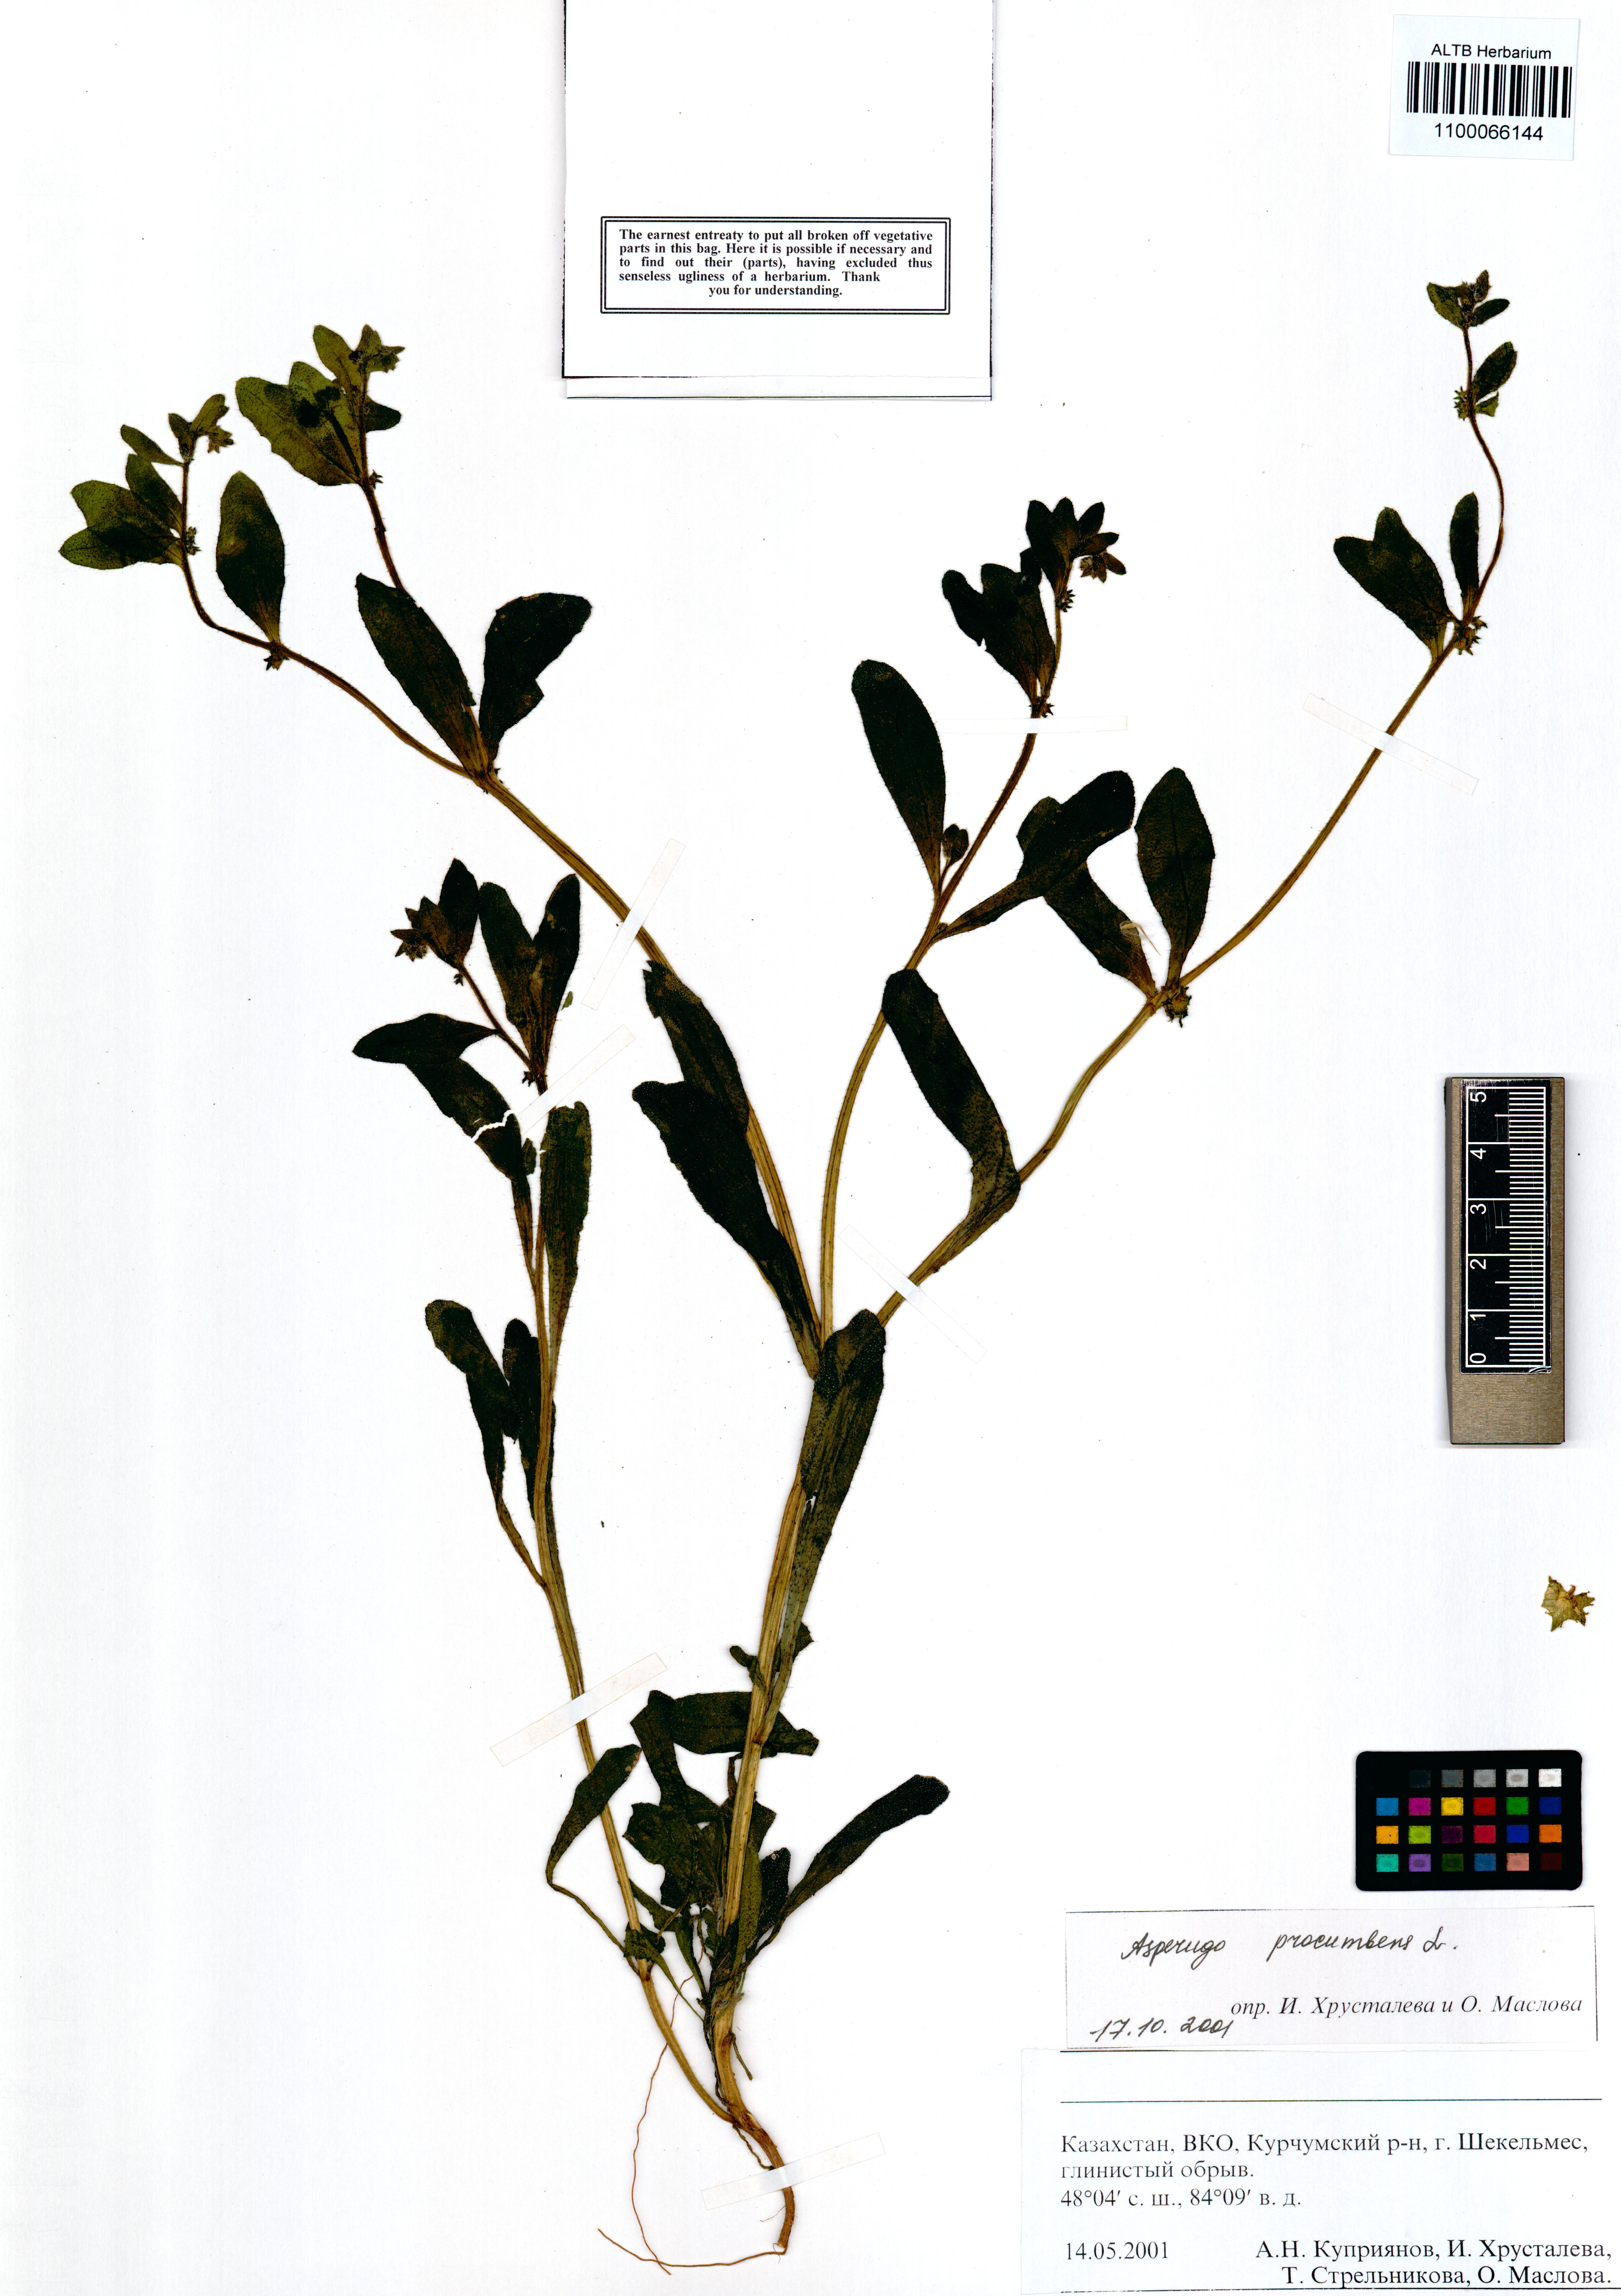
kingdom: Plantae
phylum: Tracheophyta
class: Magnoliopsida
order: Boraginales
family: Boraginaceae
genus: Asperugo
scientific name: Asperugo procumbens
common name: Madwort
